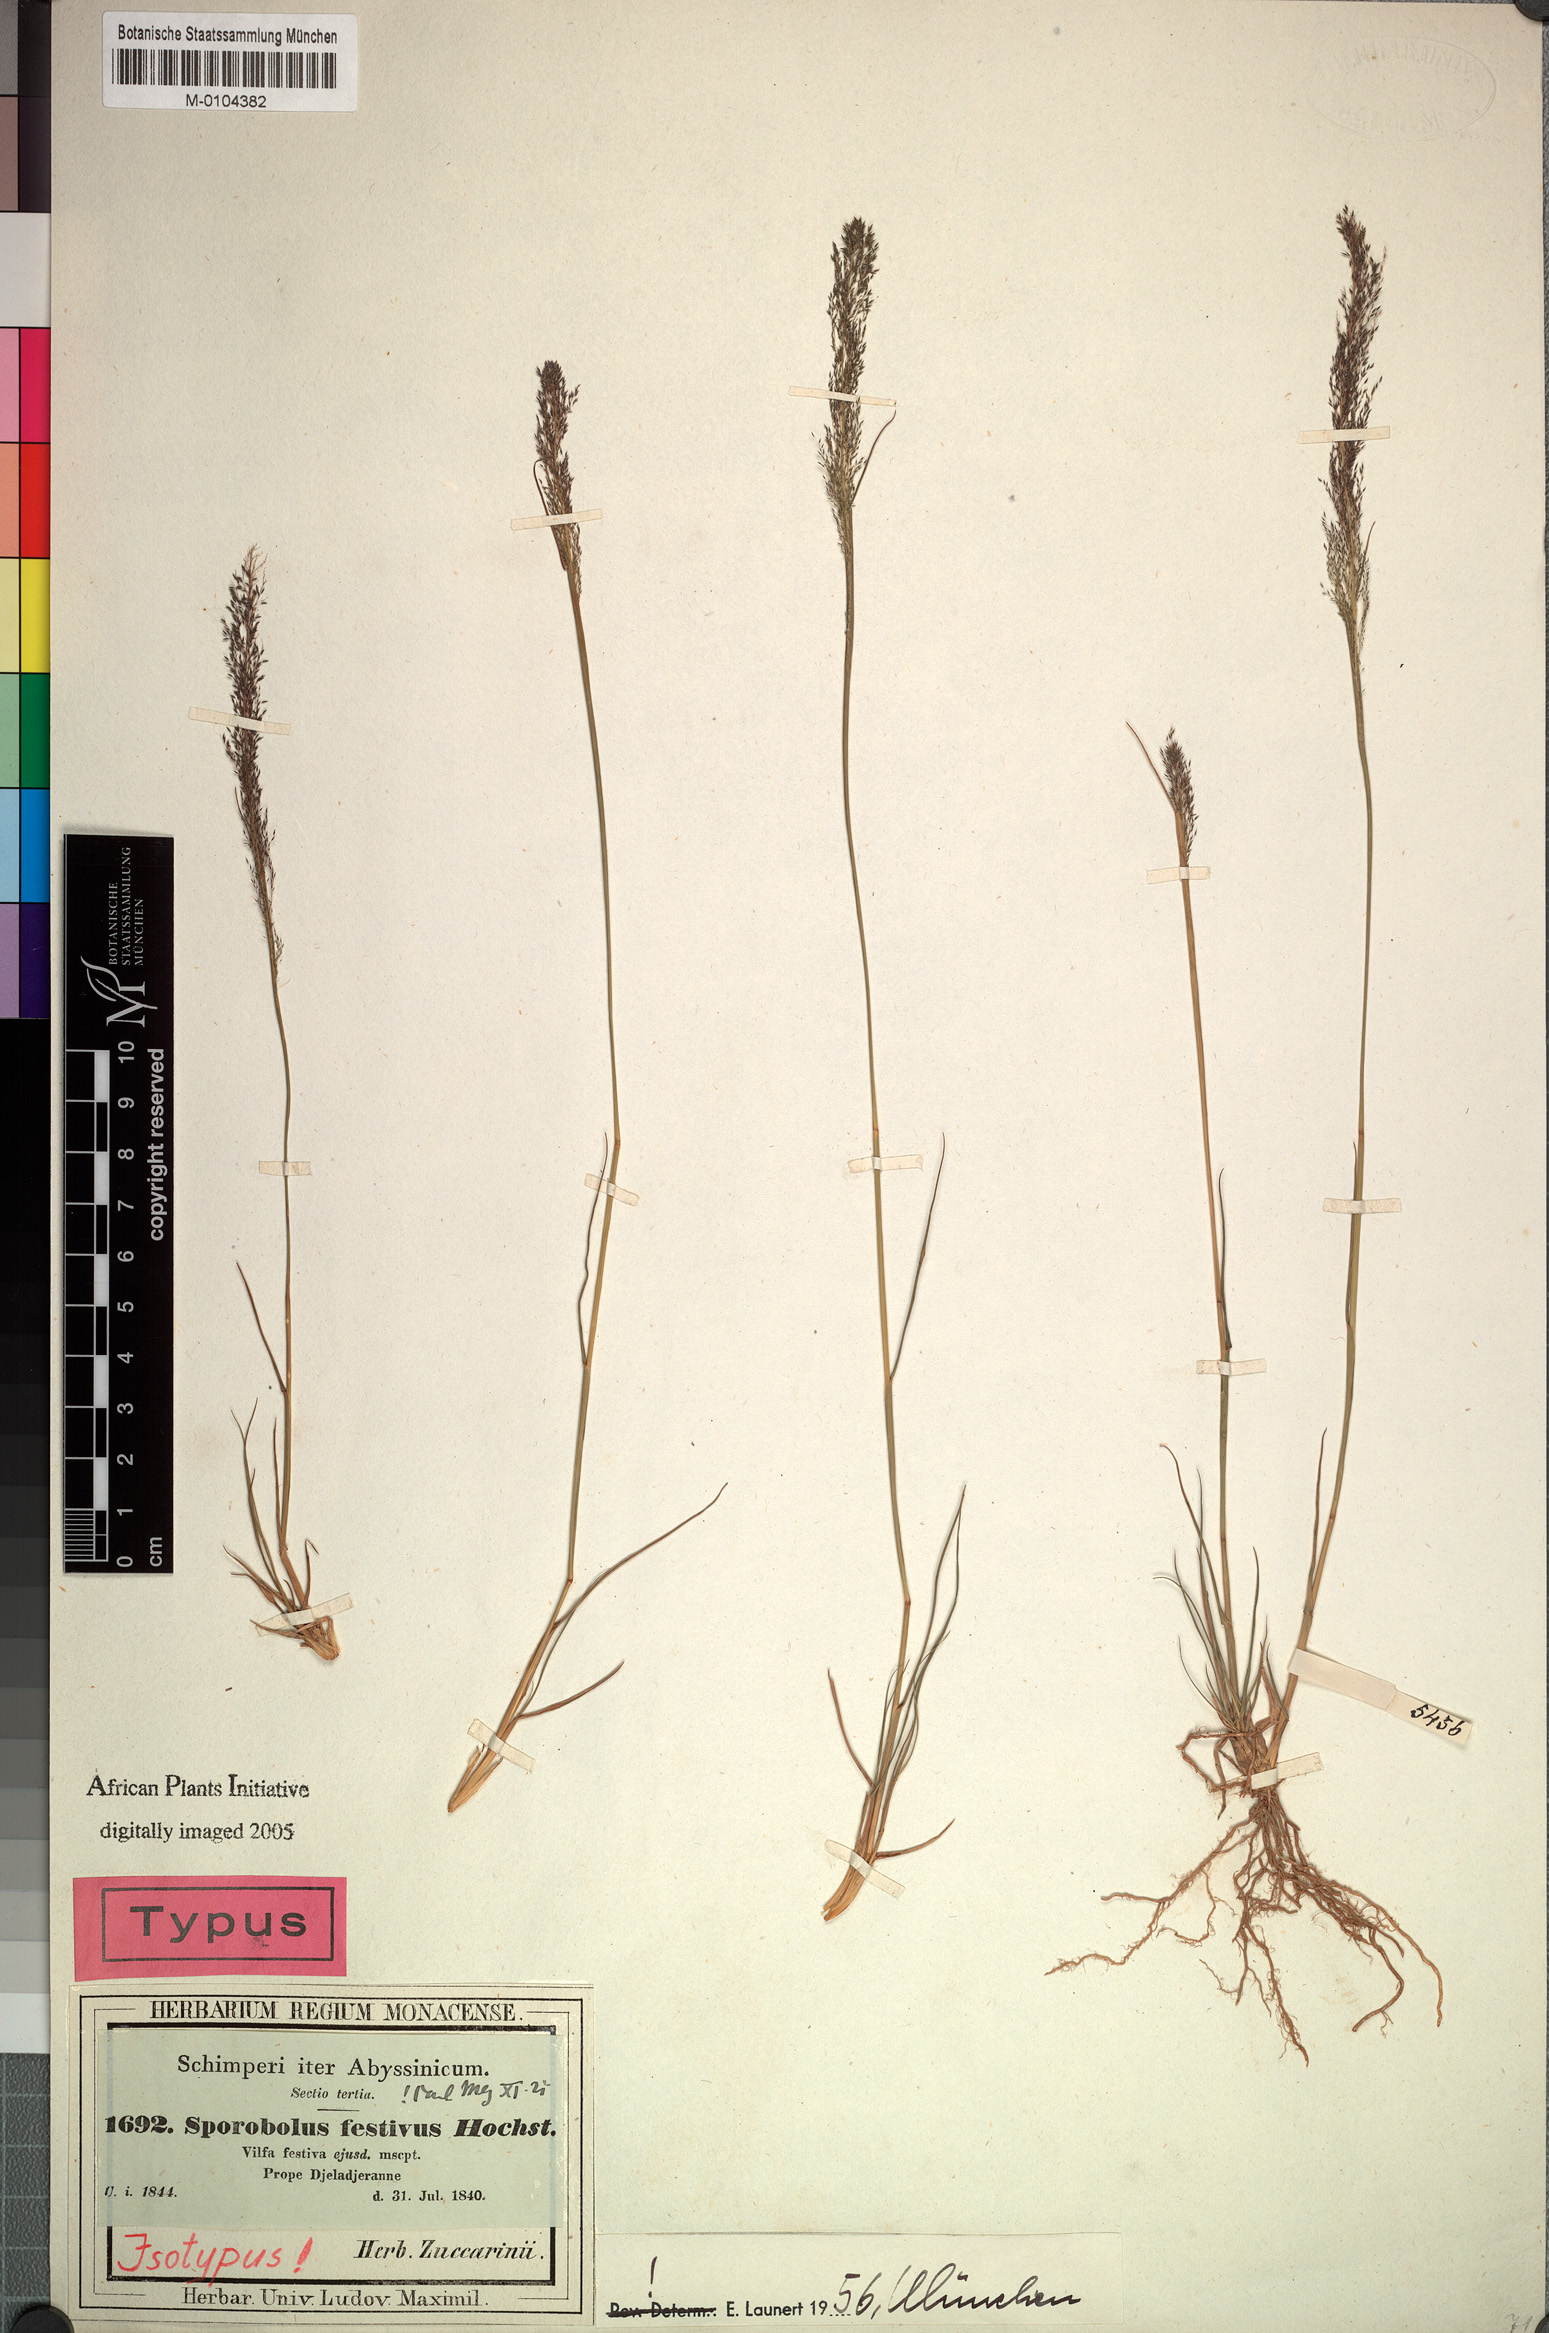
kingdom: Plantae
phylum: Tracheophyta
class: Liliopsida
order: Poales
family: Poaceae
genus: Sporobolus
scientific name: Sporobolus festivus
